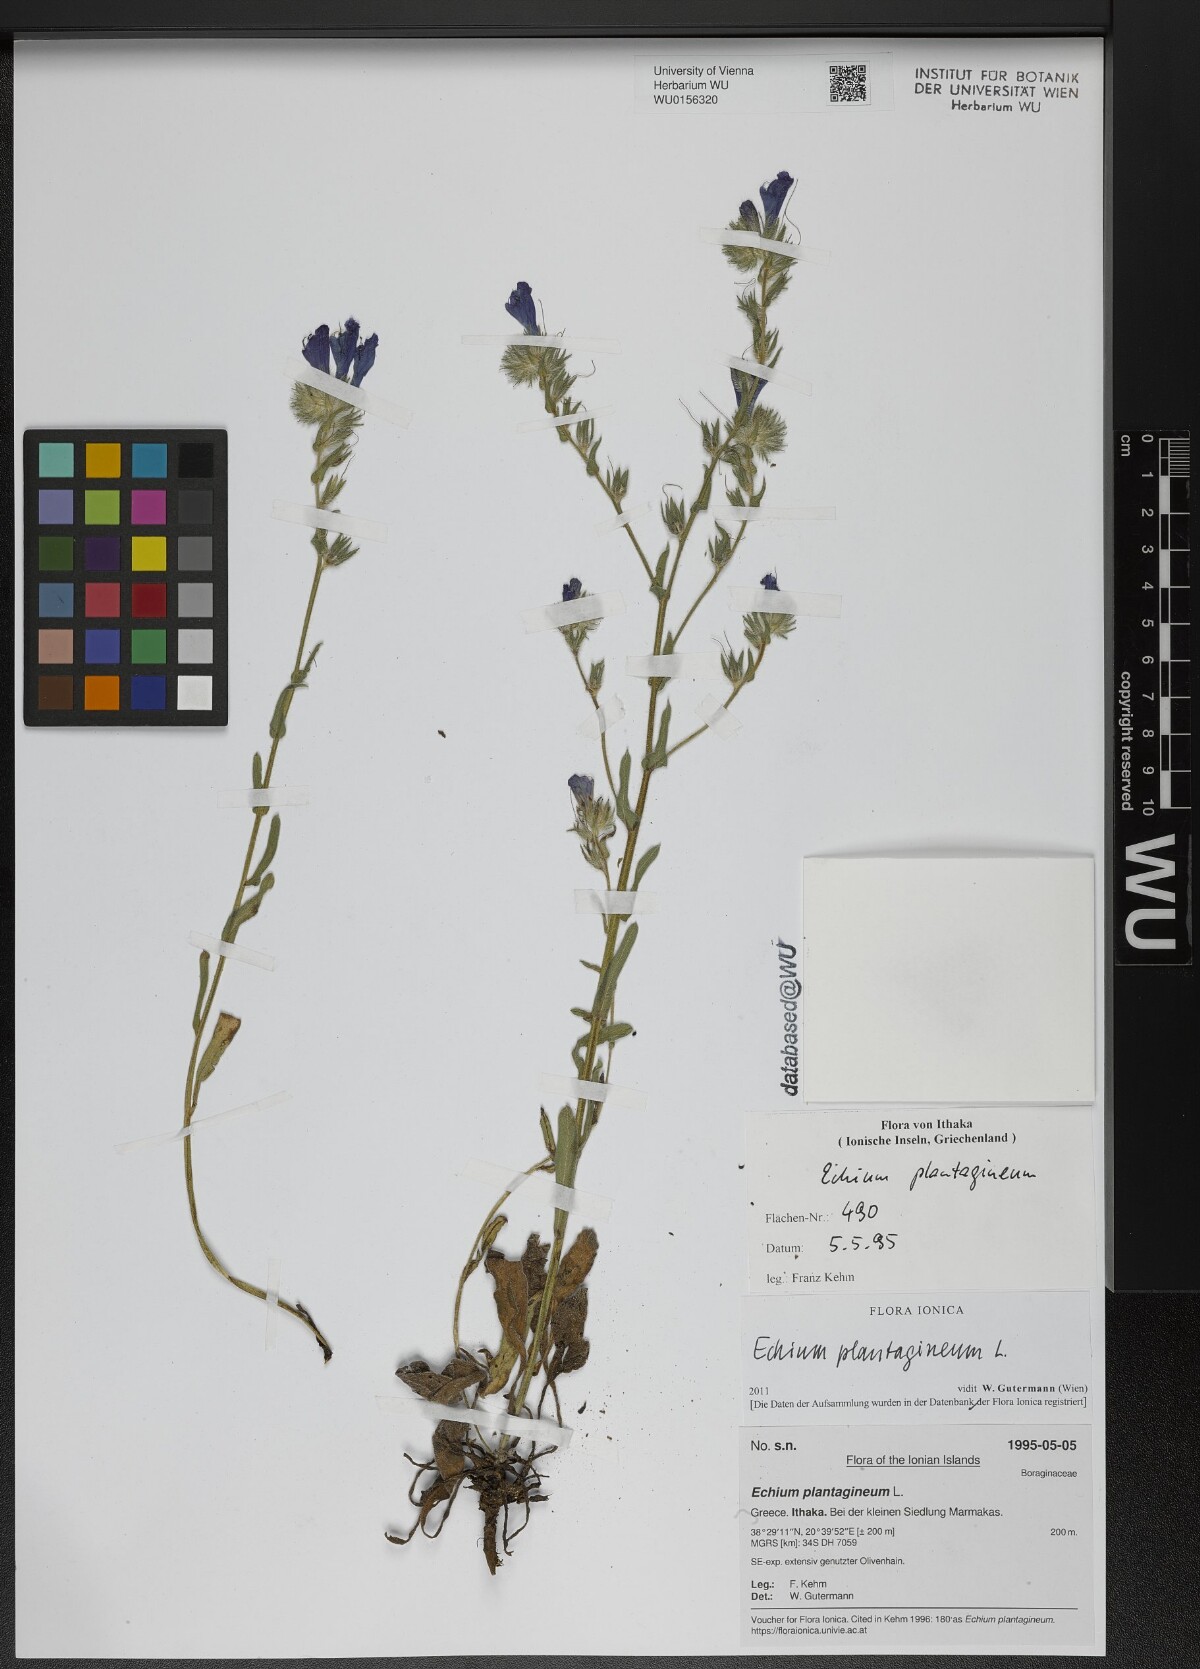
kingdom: Plantae
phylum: Tracheophyta
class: Magnoliopsida
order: Boraginales
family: Boraginaceae
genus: Echium
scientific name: Echium plantagineum
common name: Purple viper's-bugloss
